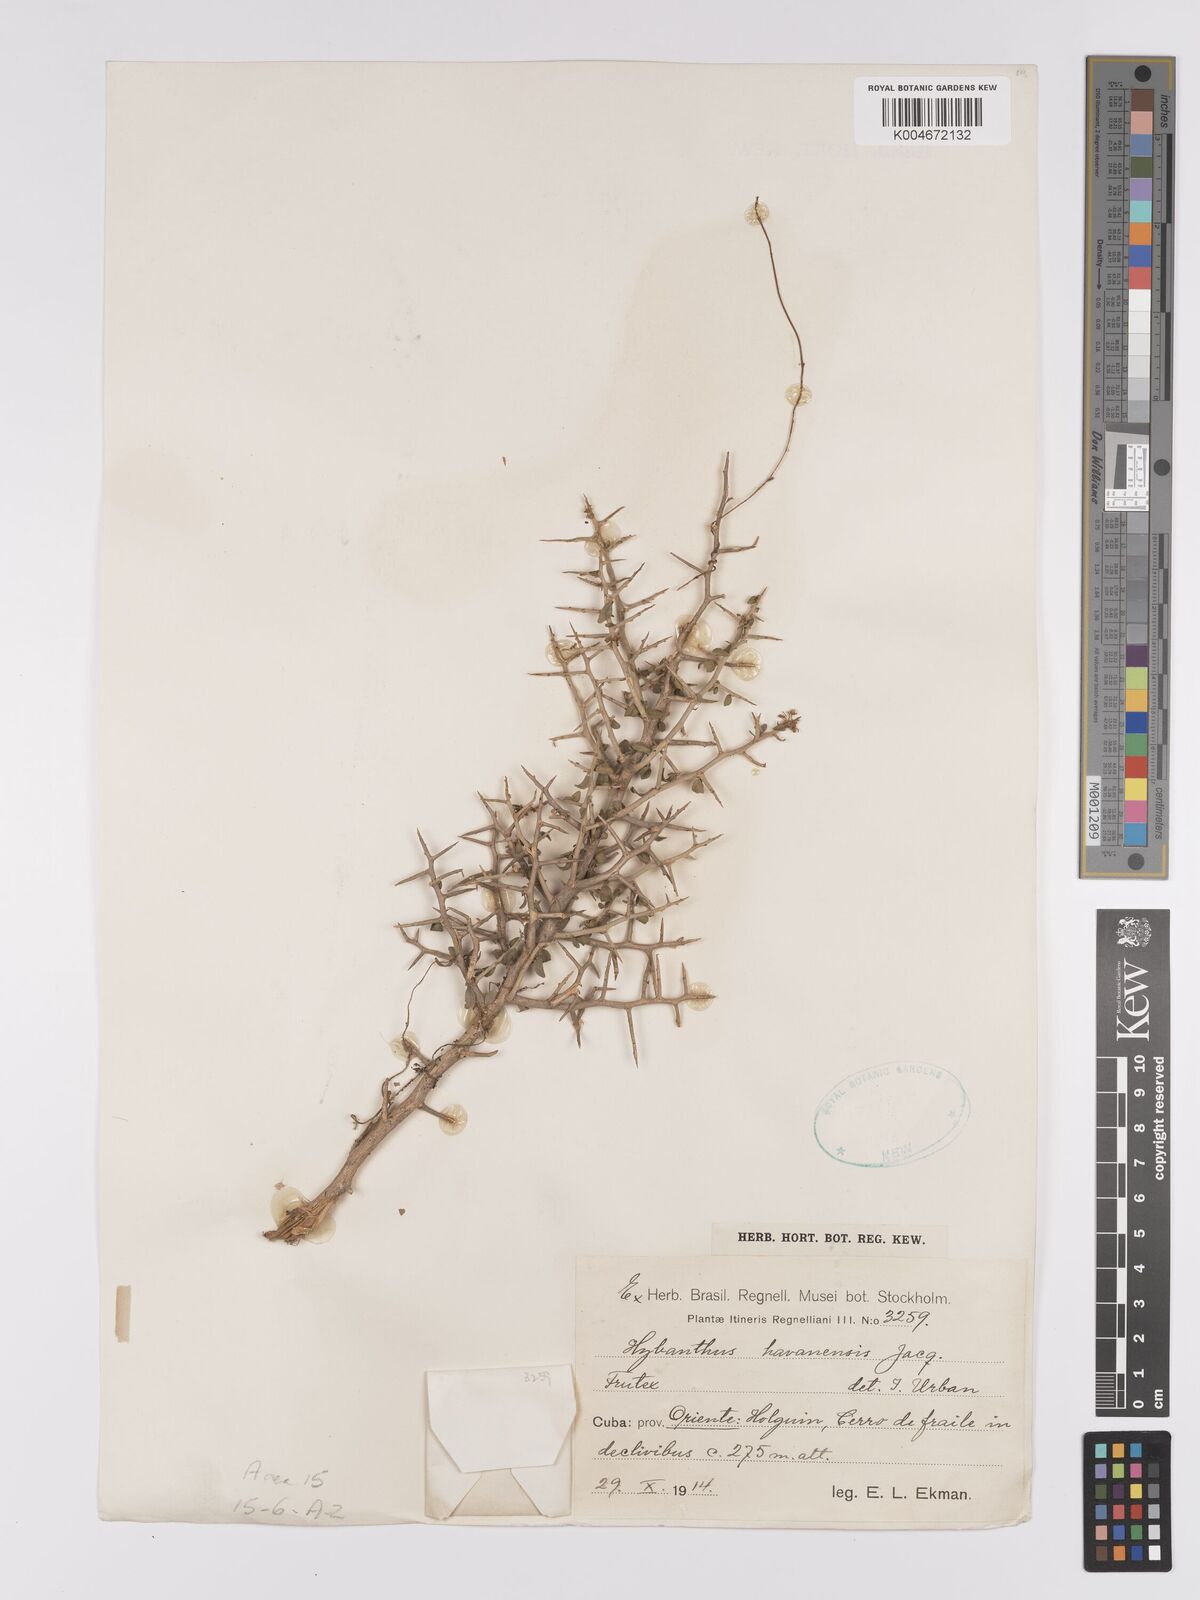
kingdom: Plantae
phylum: Tracheophyta
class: Magnoliopsida
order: Malpighiales
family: Violaceae
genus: Hybanthus
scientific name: Hybanthus havanensis
